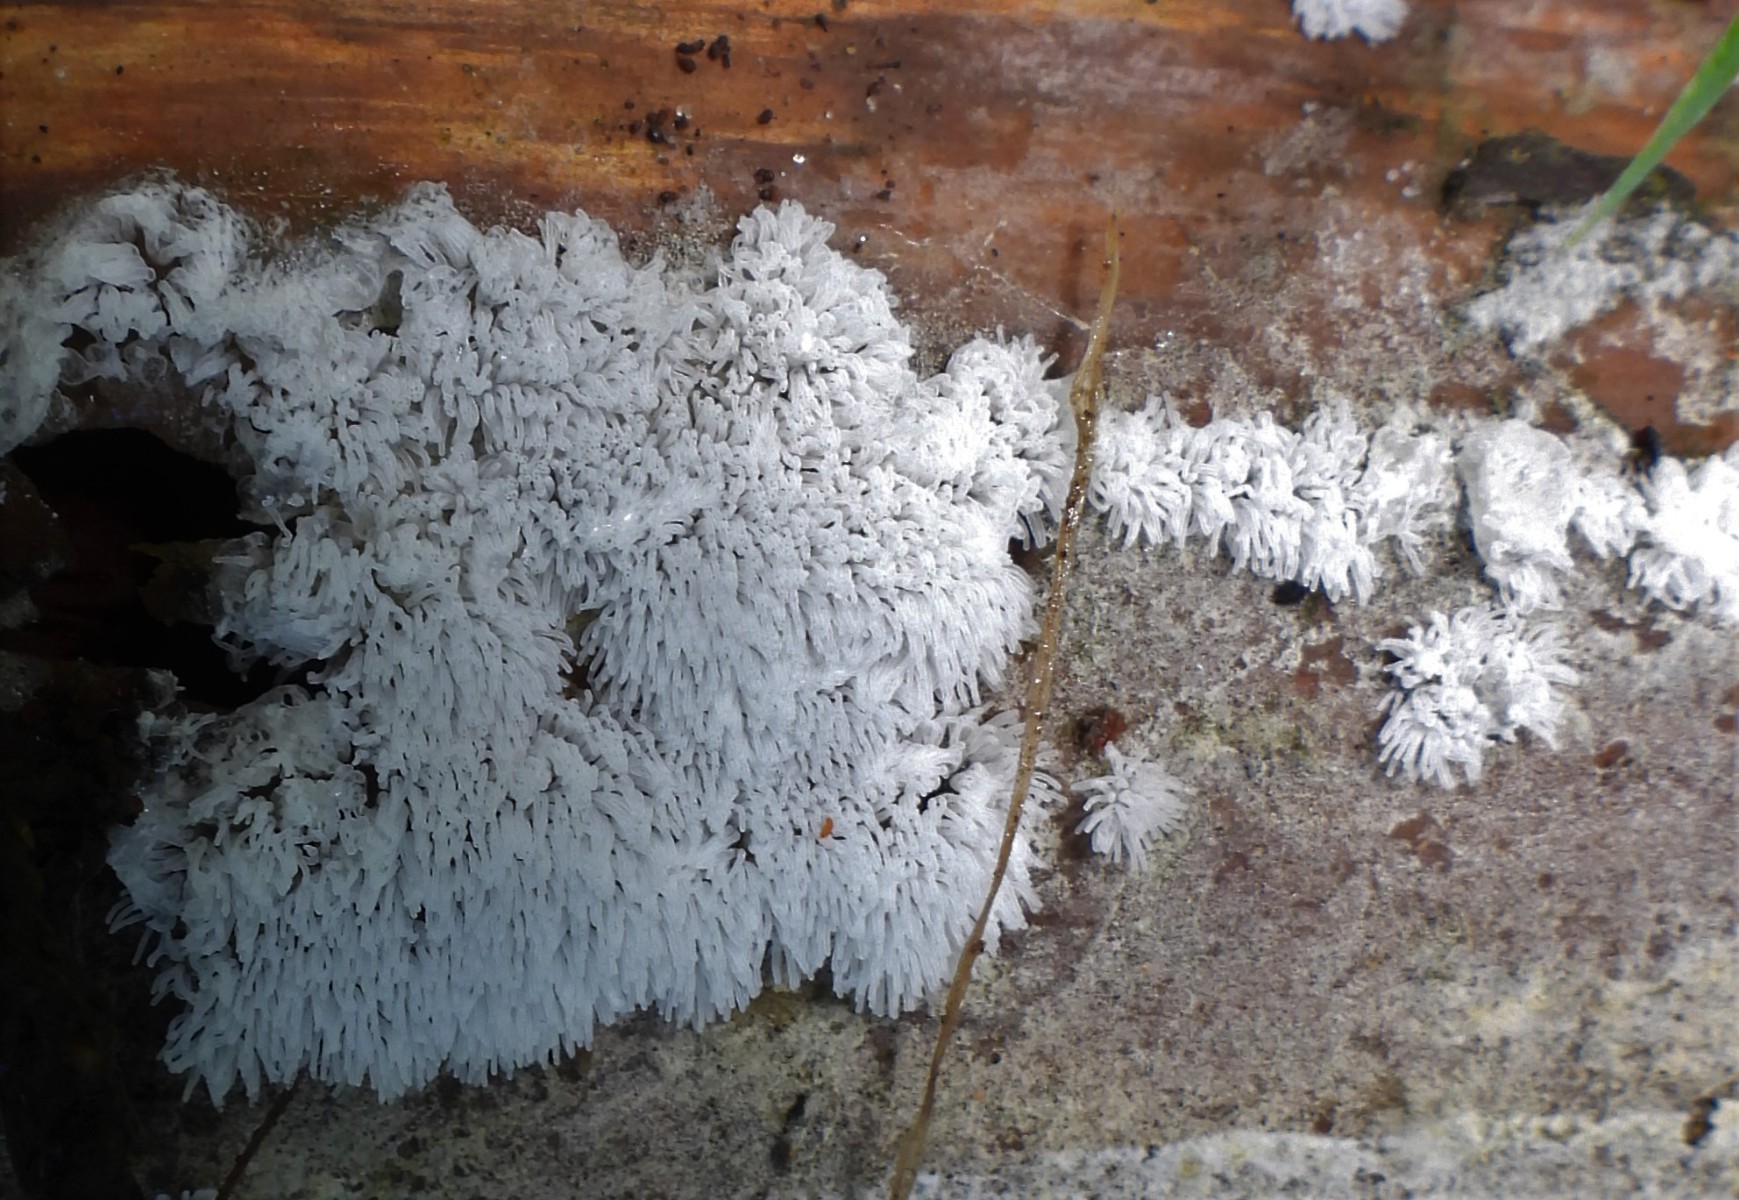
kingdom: Protozoa
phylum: Mycetozoa
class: Protosteliomycetes
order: Ceratiomyxales
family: Ceratiomyxaceae
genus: Ceratiomyxa
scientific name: Ceratiomyxa fruticulosa
